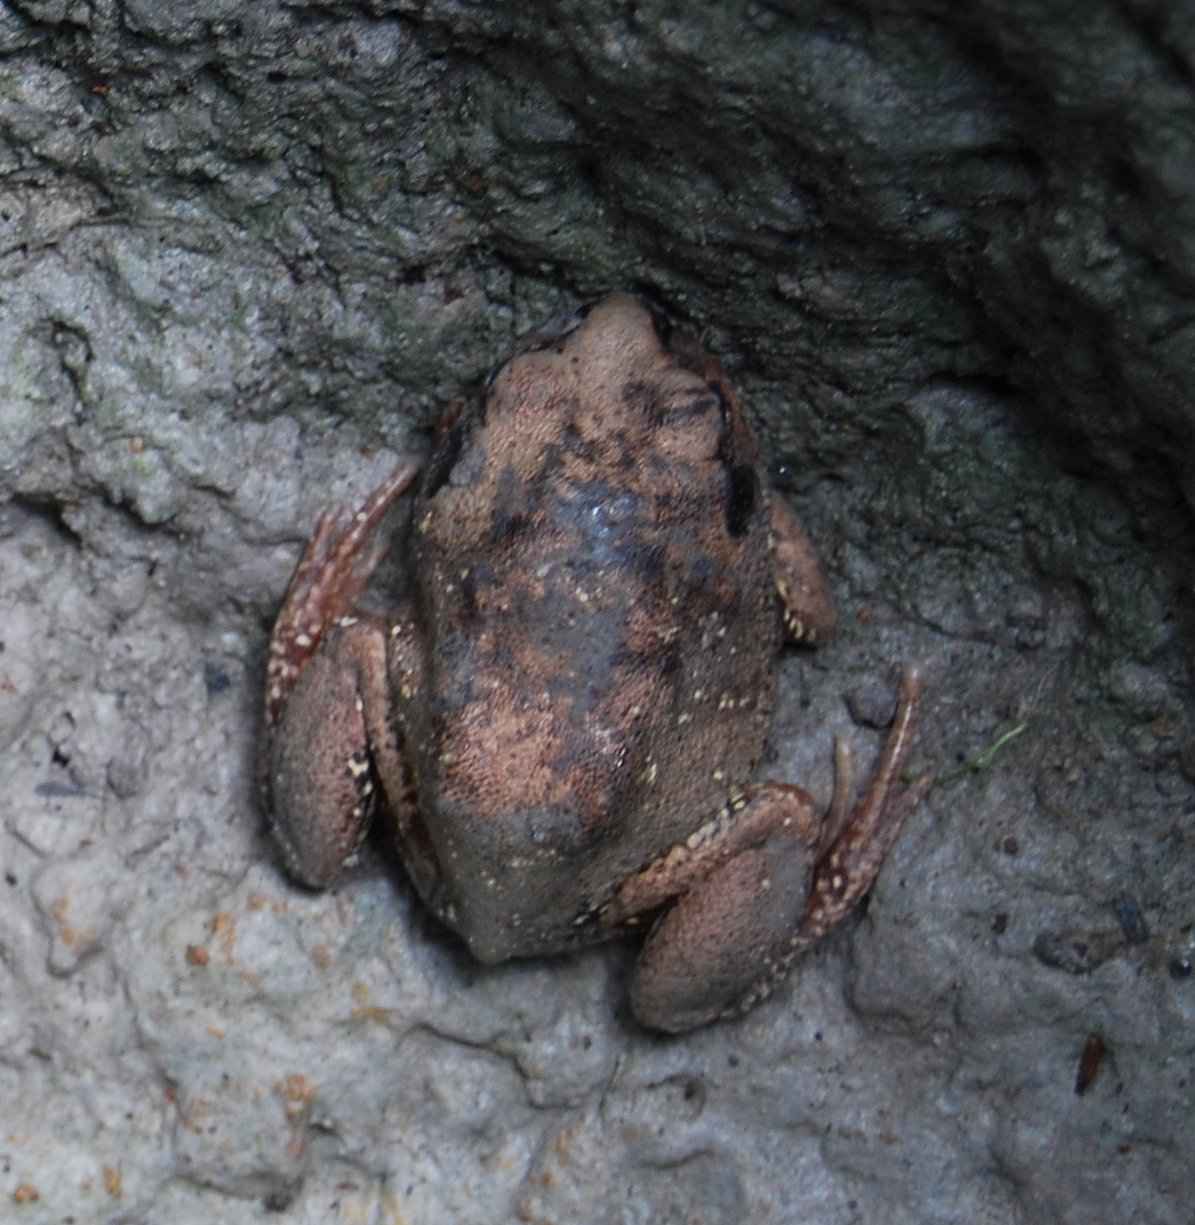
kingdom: Animalia
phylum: Chordata
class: Amphibia
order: Anura
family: Arthroleptidae
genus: Leptopelis
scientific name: Leptopelis bocagii
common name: Bocage's frog
